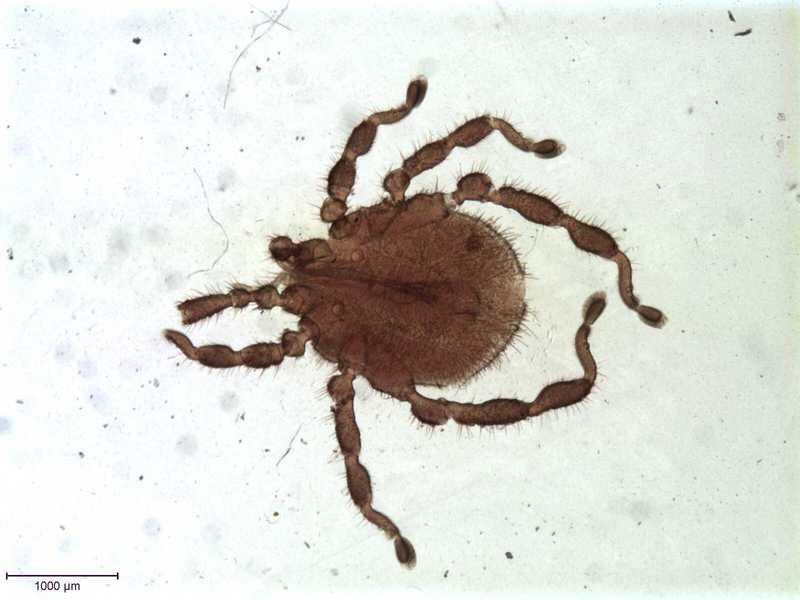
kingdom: Animalia
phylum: Arthropoda
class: Arachnida
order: Trombidiformes
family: Erythraeidae
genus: Caeculisoma
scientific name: Caeculisoma argus
